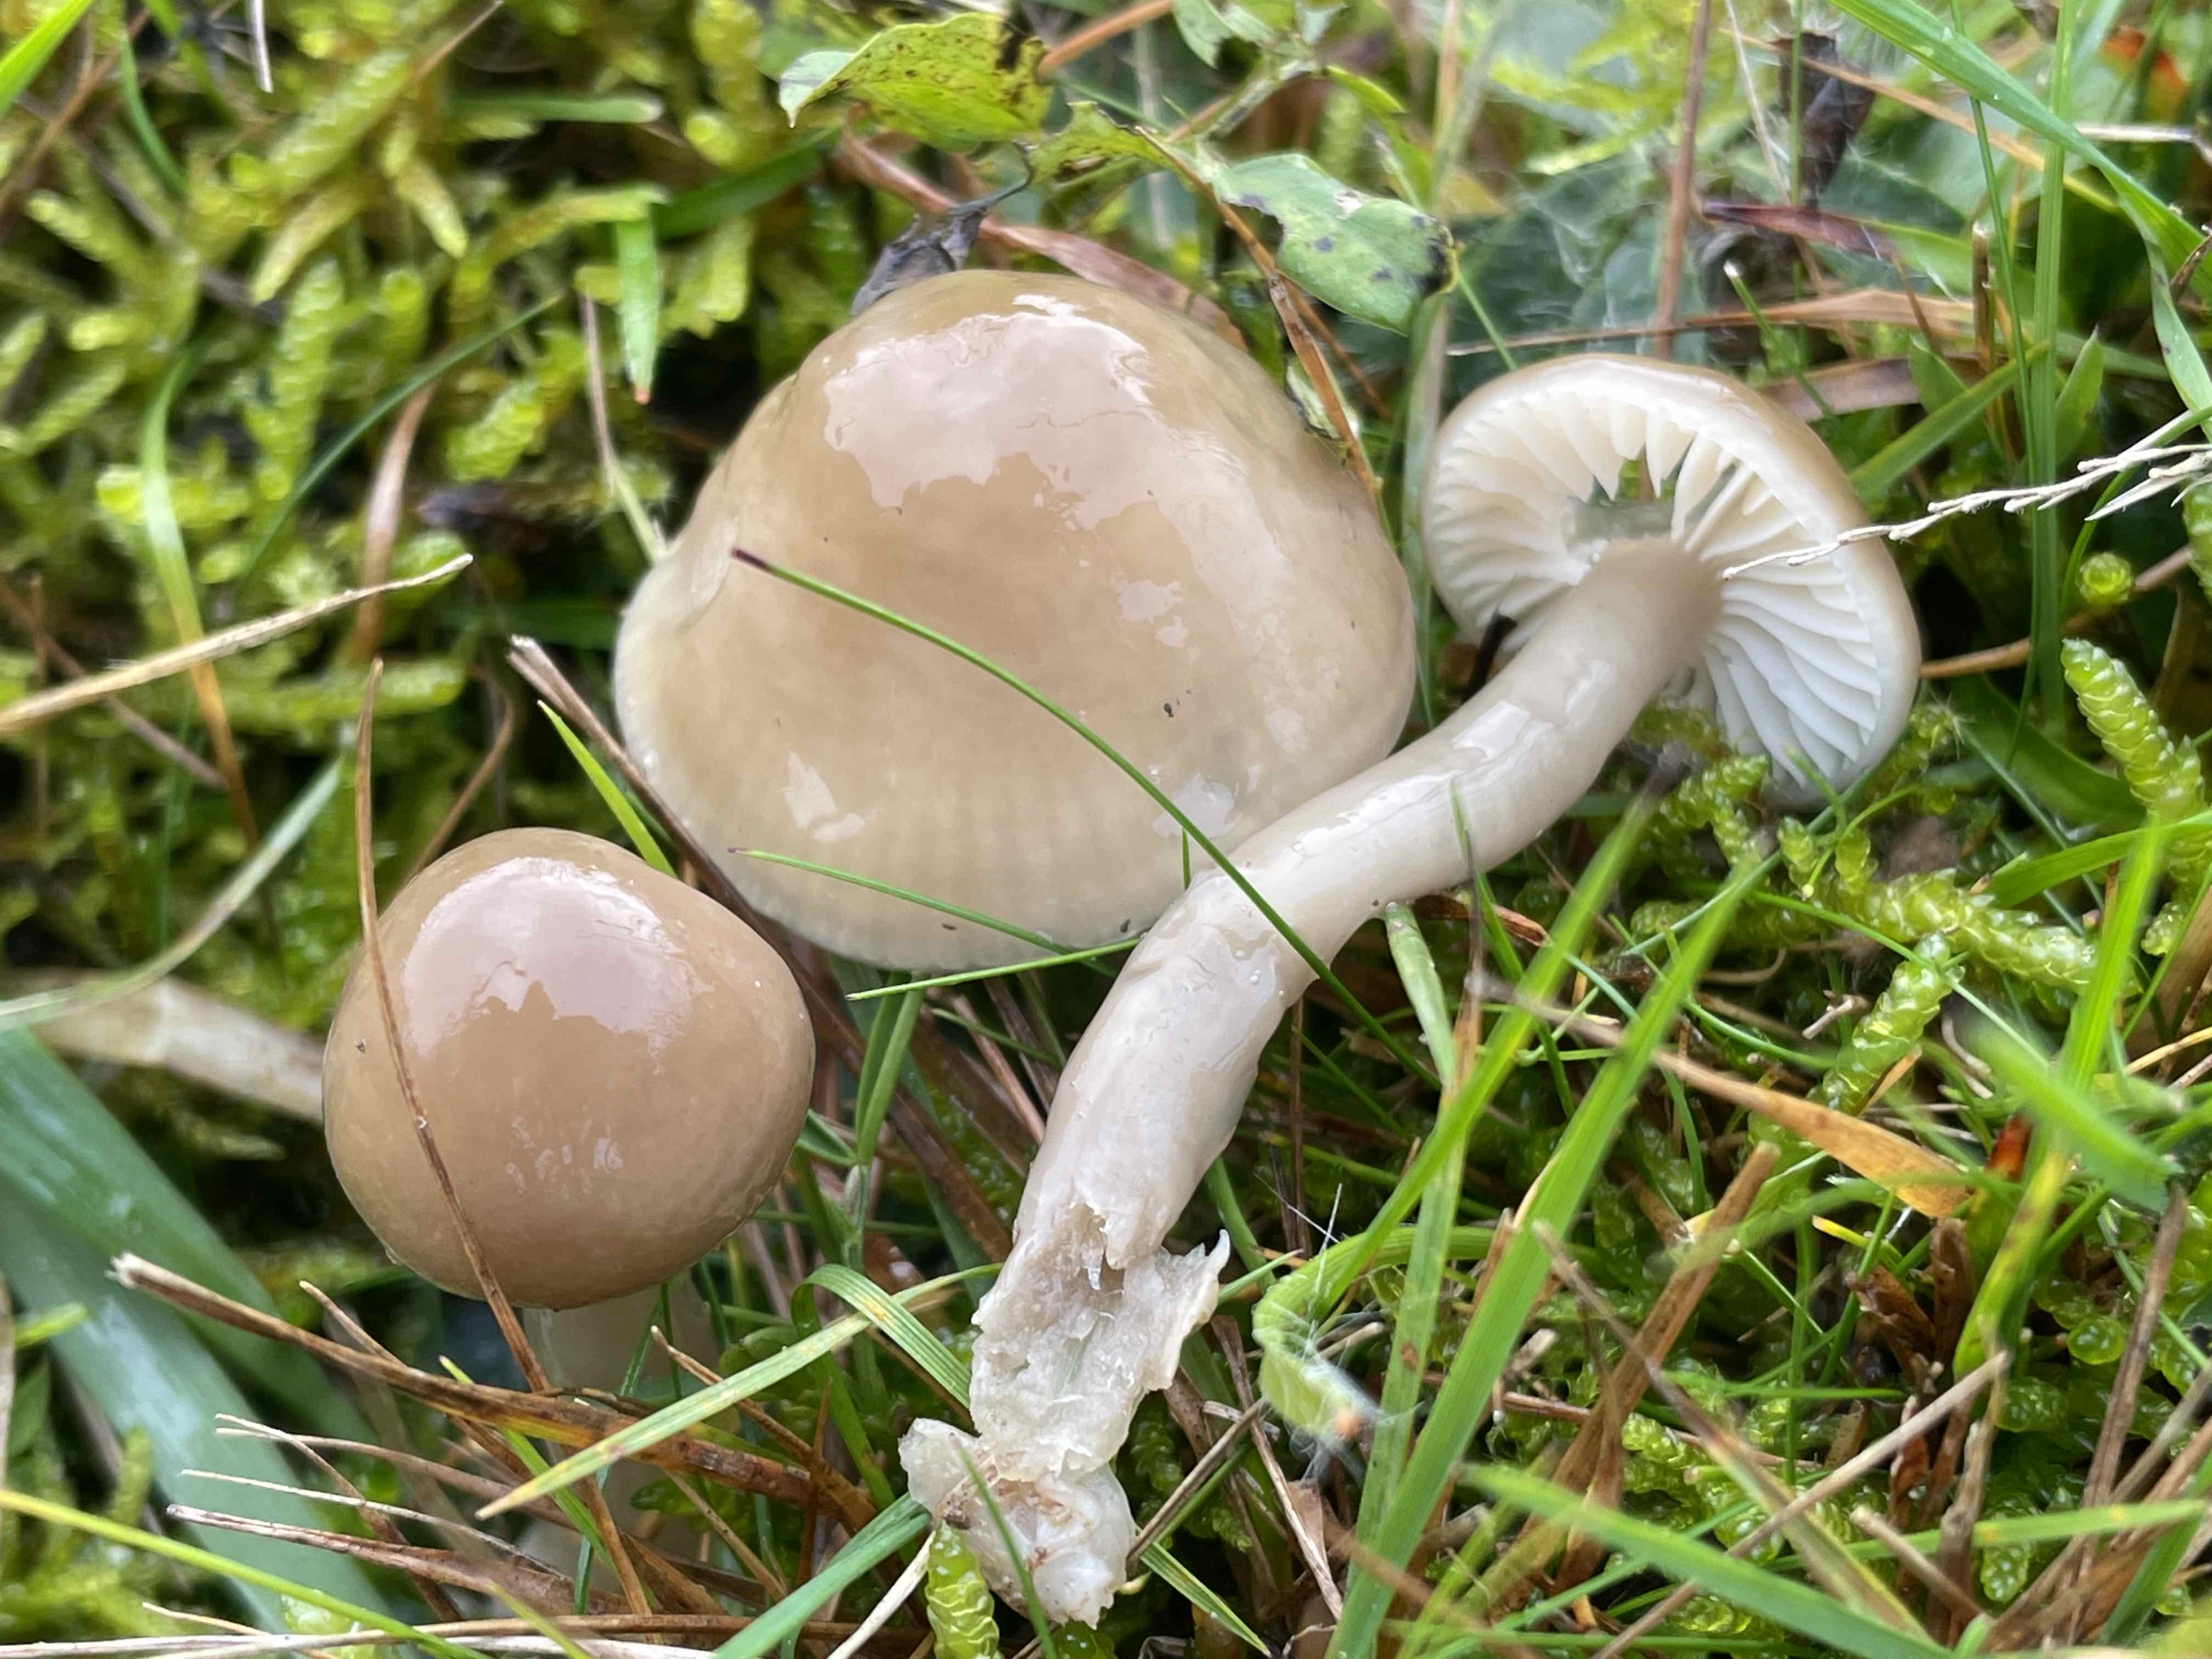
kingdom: Fungi
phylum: Basidiomycota
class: Agaricomycetes
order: Agaricales
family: Hygrophoraceae
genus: Gliophorus
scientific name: Gliophorus irrigatus
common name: slimet vokshat
